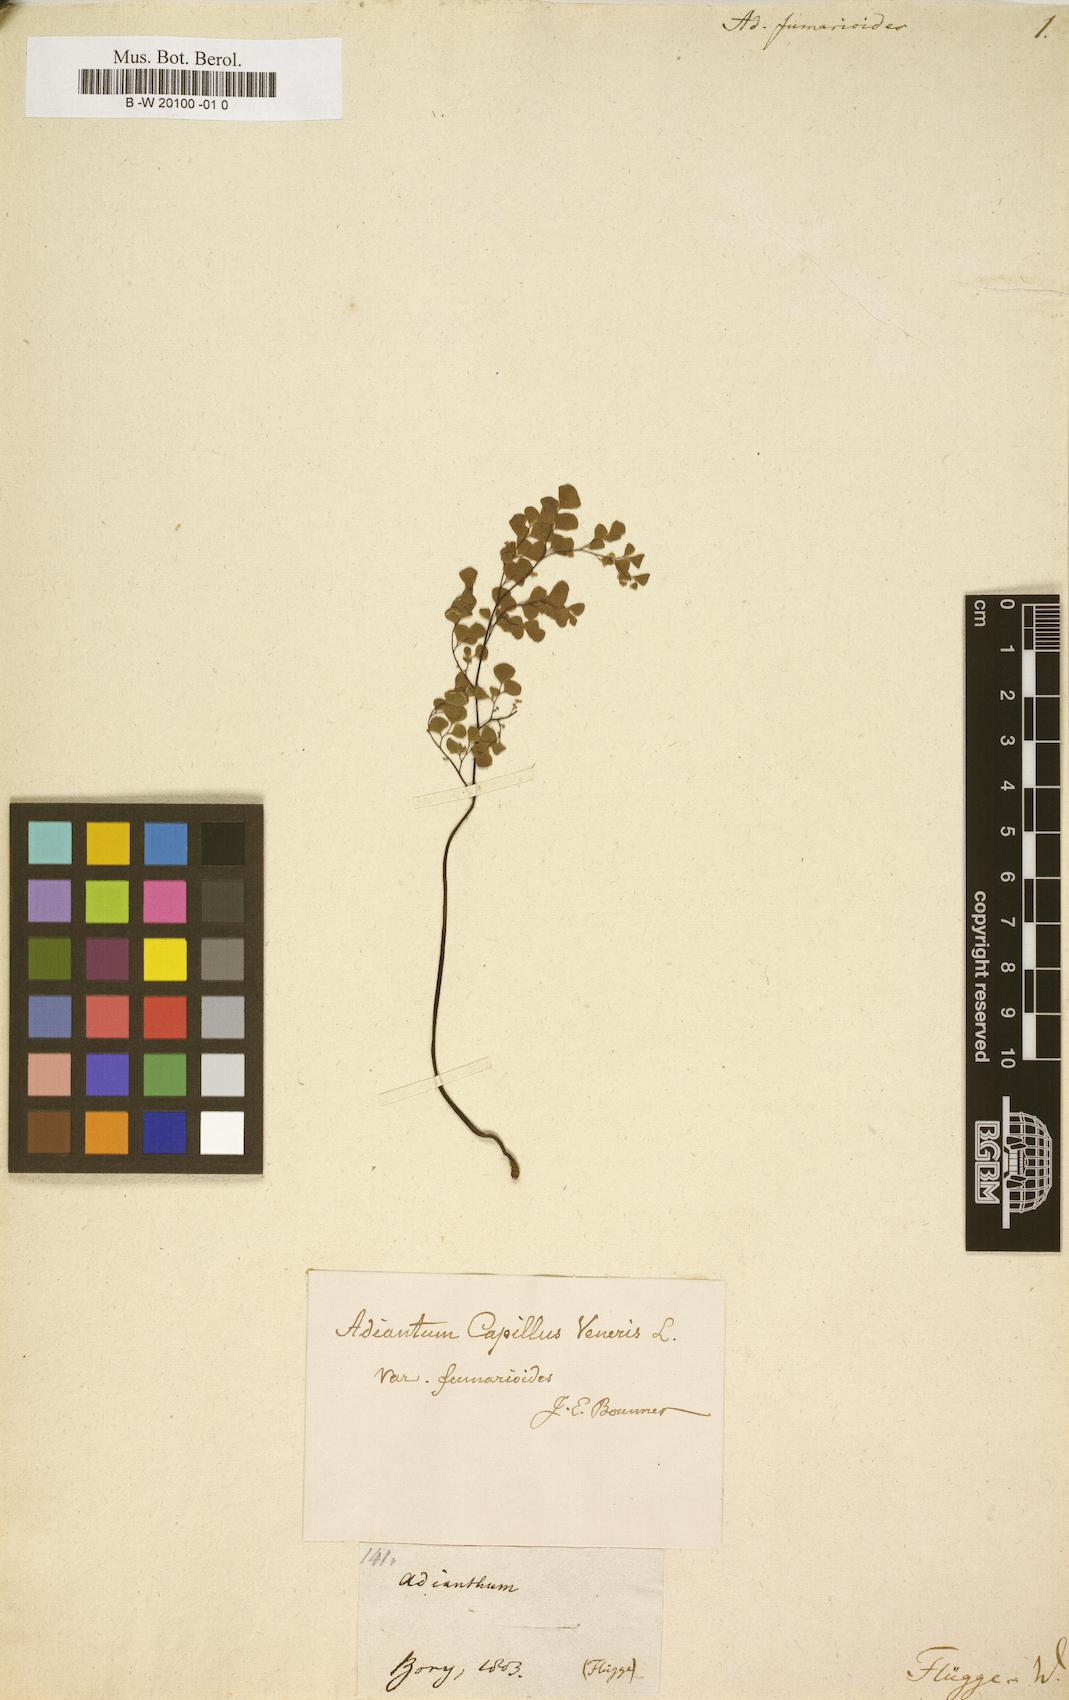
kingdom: Plantae
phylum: Tracheophyta
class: Polypodiopsida
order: Polypodiales
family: Pteridaceae
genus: Adiantum
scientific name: Adiantum capillus-veneris
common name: Maidenhair fern
